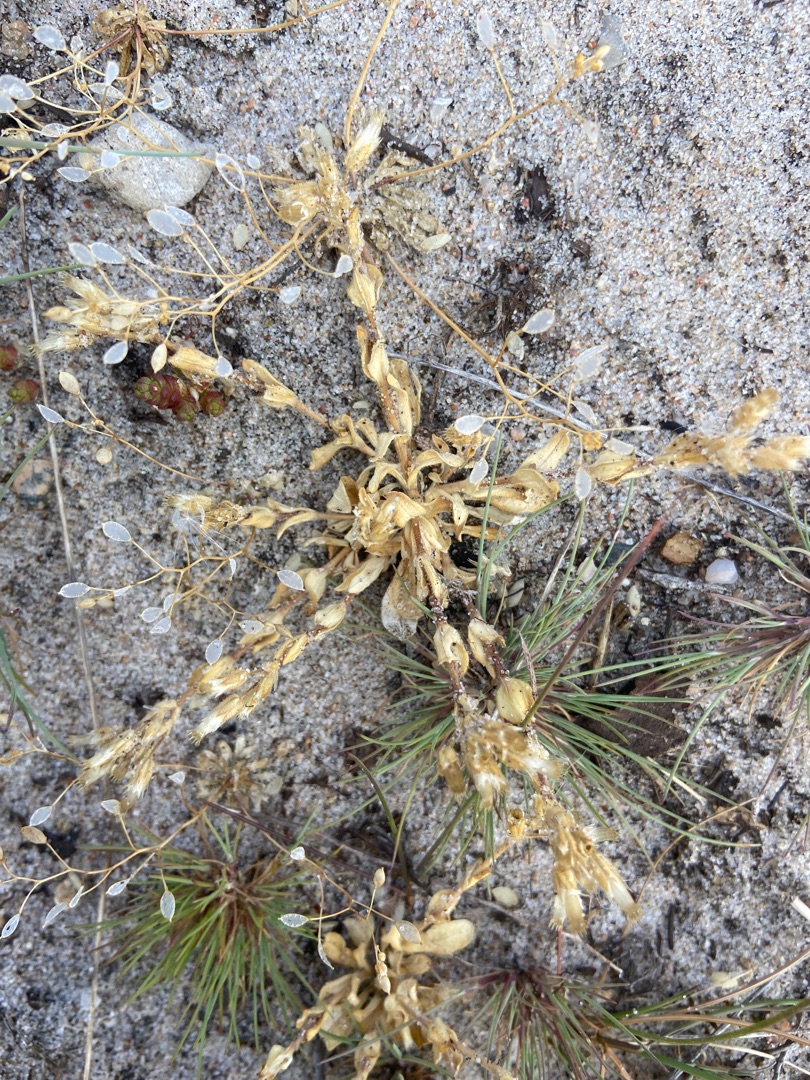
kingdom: Plantae
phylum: Tracheophyta
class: Magnoliopsida
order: Caryophyllales
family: Caryophyllaceae
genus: Cerastium
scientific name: Cerastium semidecandrum
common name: Femhannet hønsetarm
